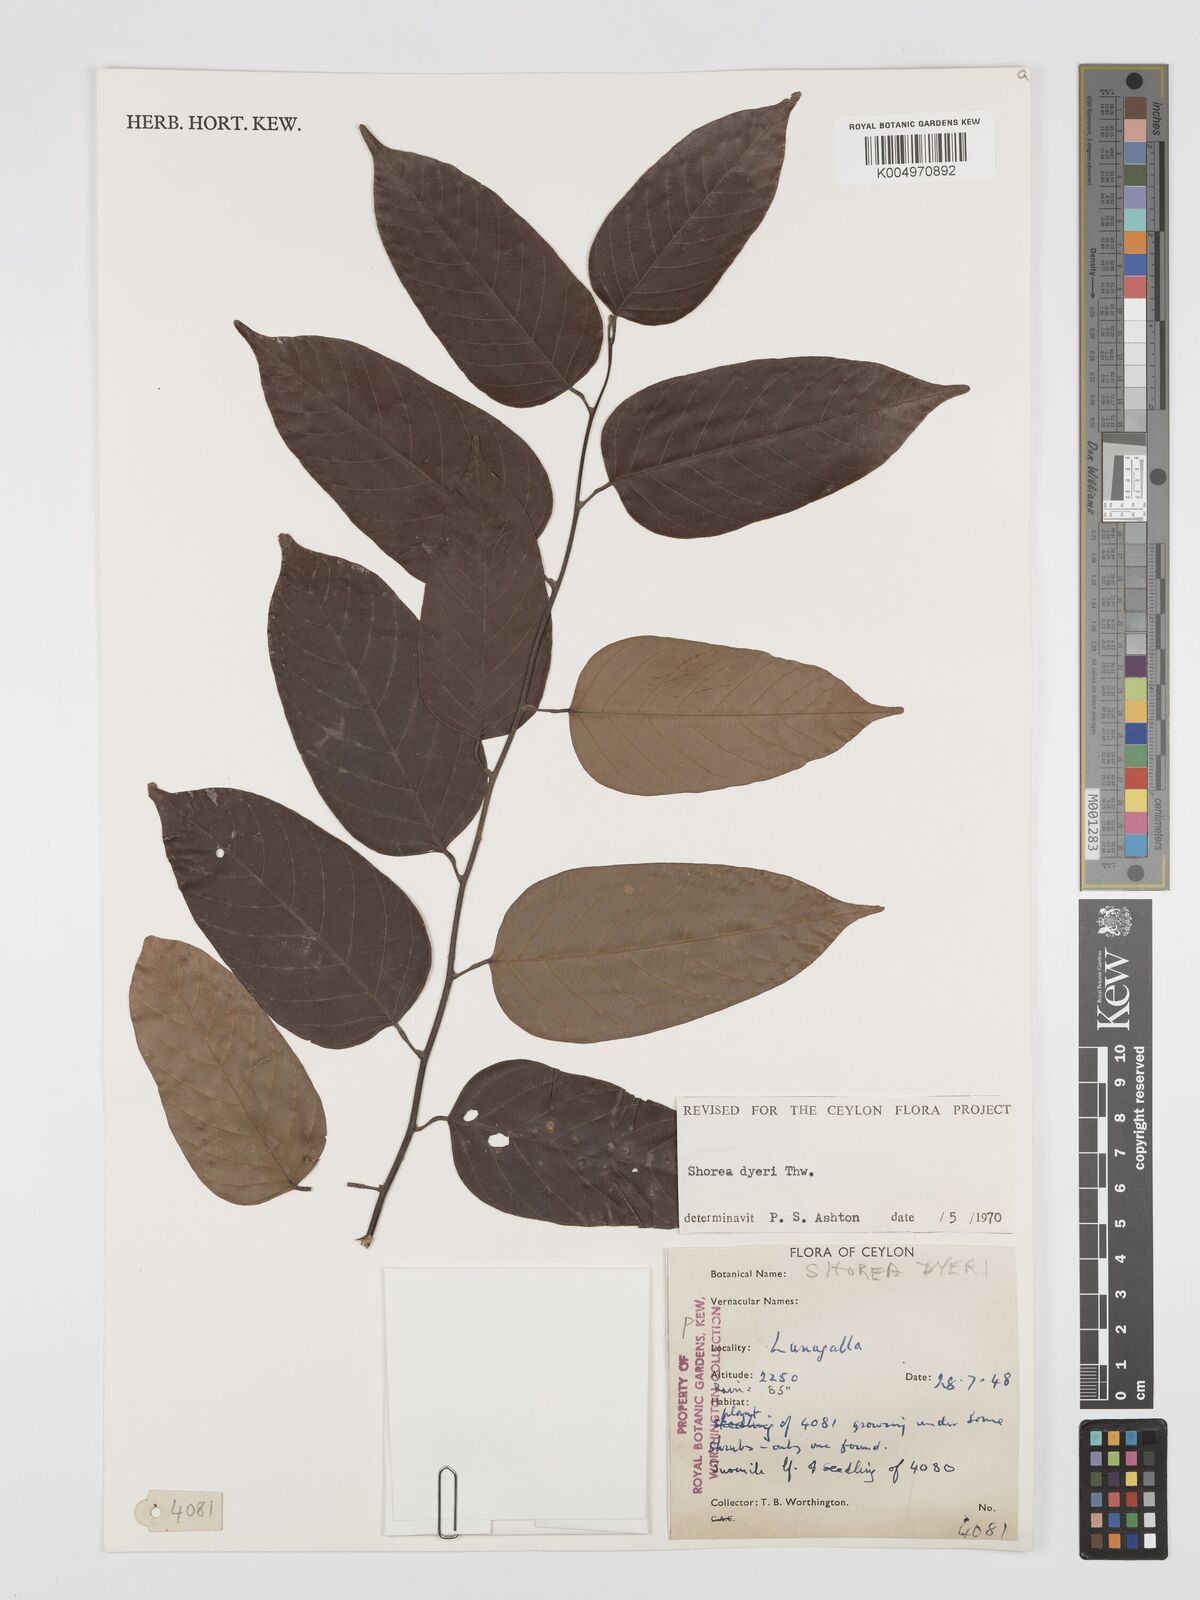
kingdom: Plantae
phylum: Tracheophyta
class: Magnoliopsida
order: Malvales
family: Dipterocarpaceae
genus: Shorea
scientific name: Shorea dyeri
